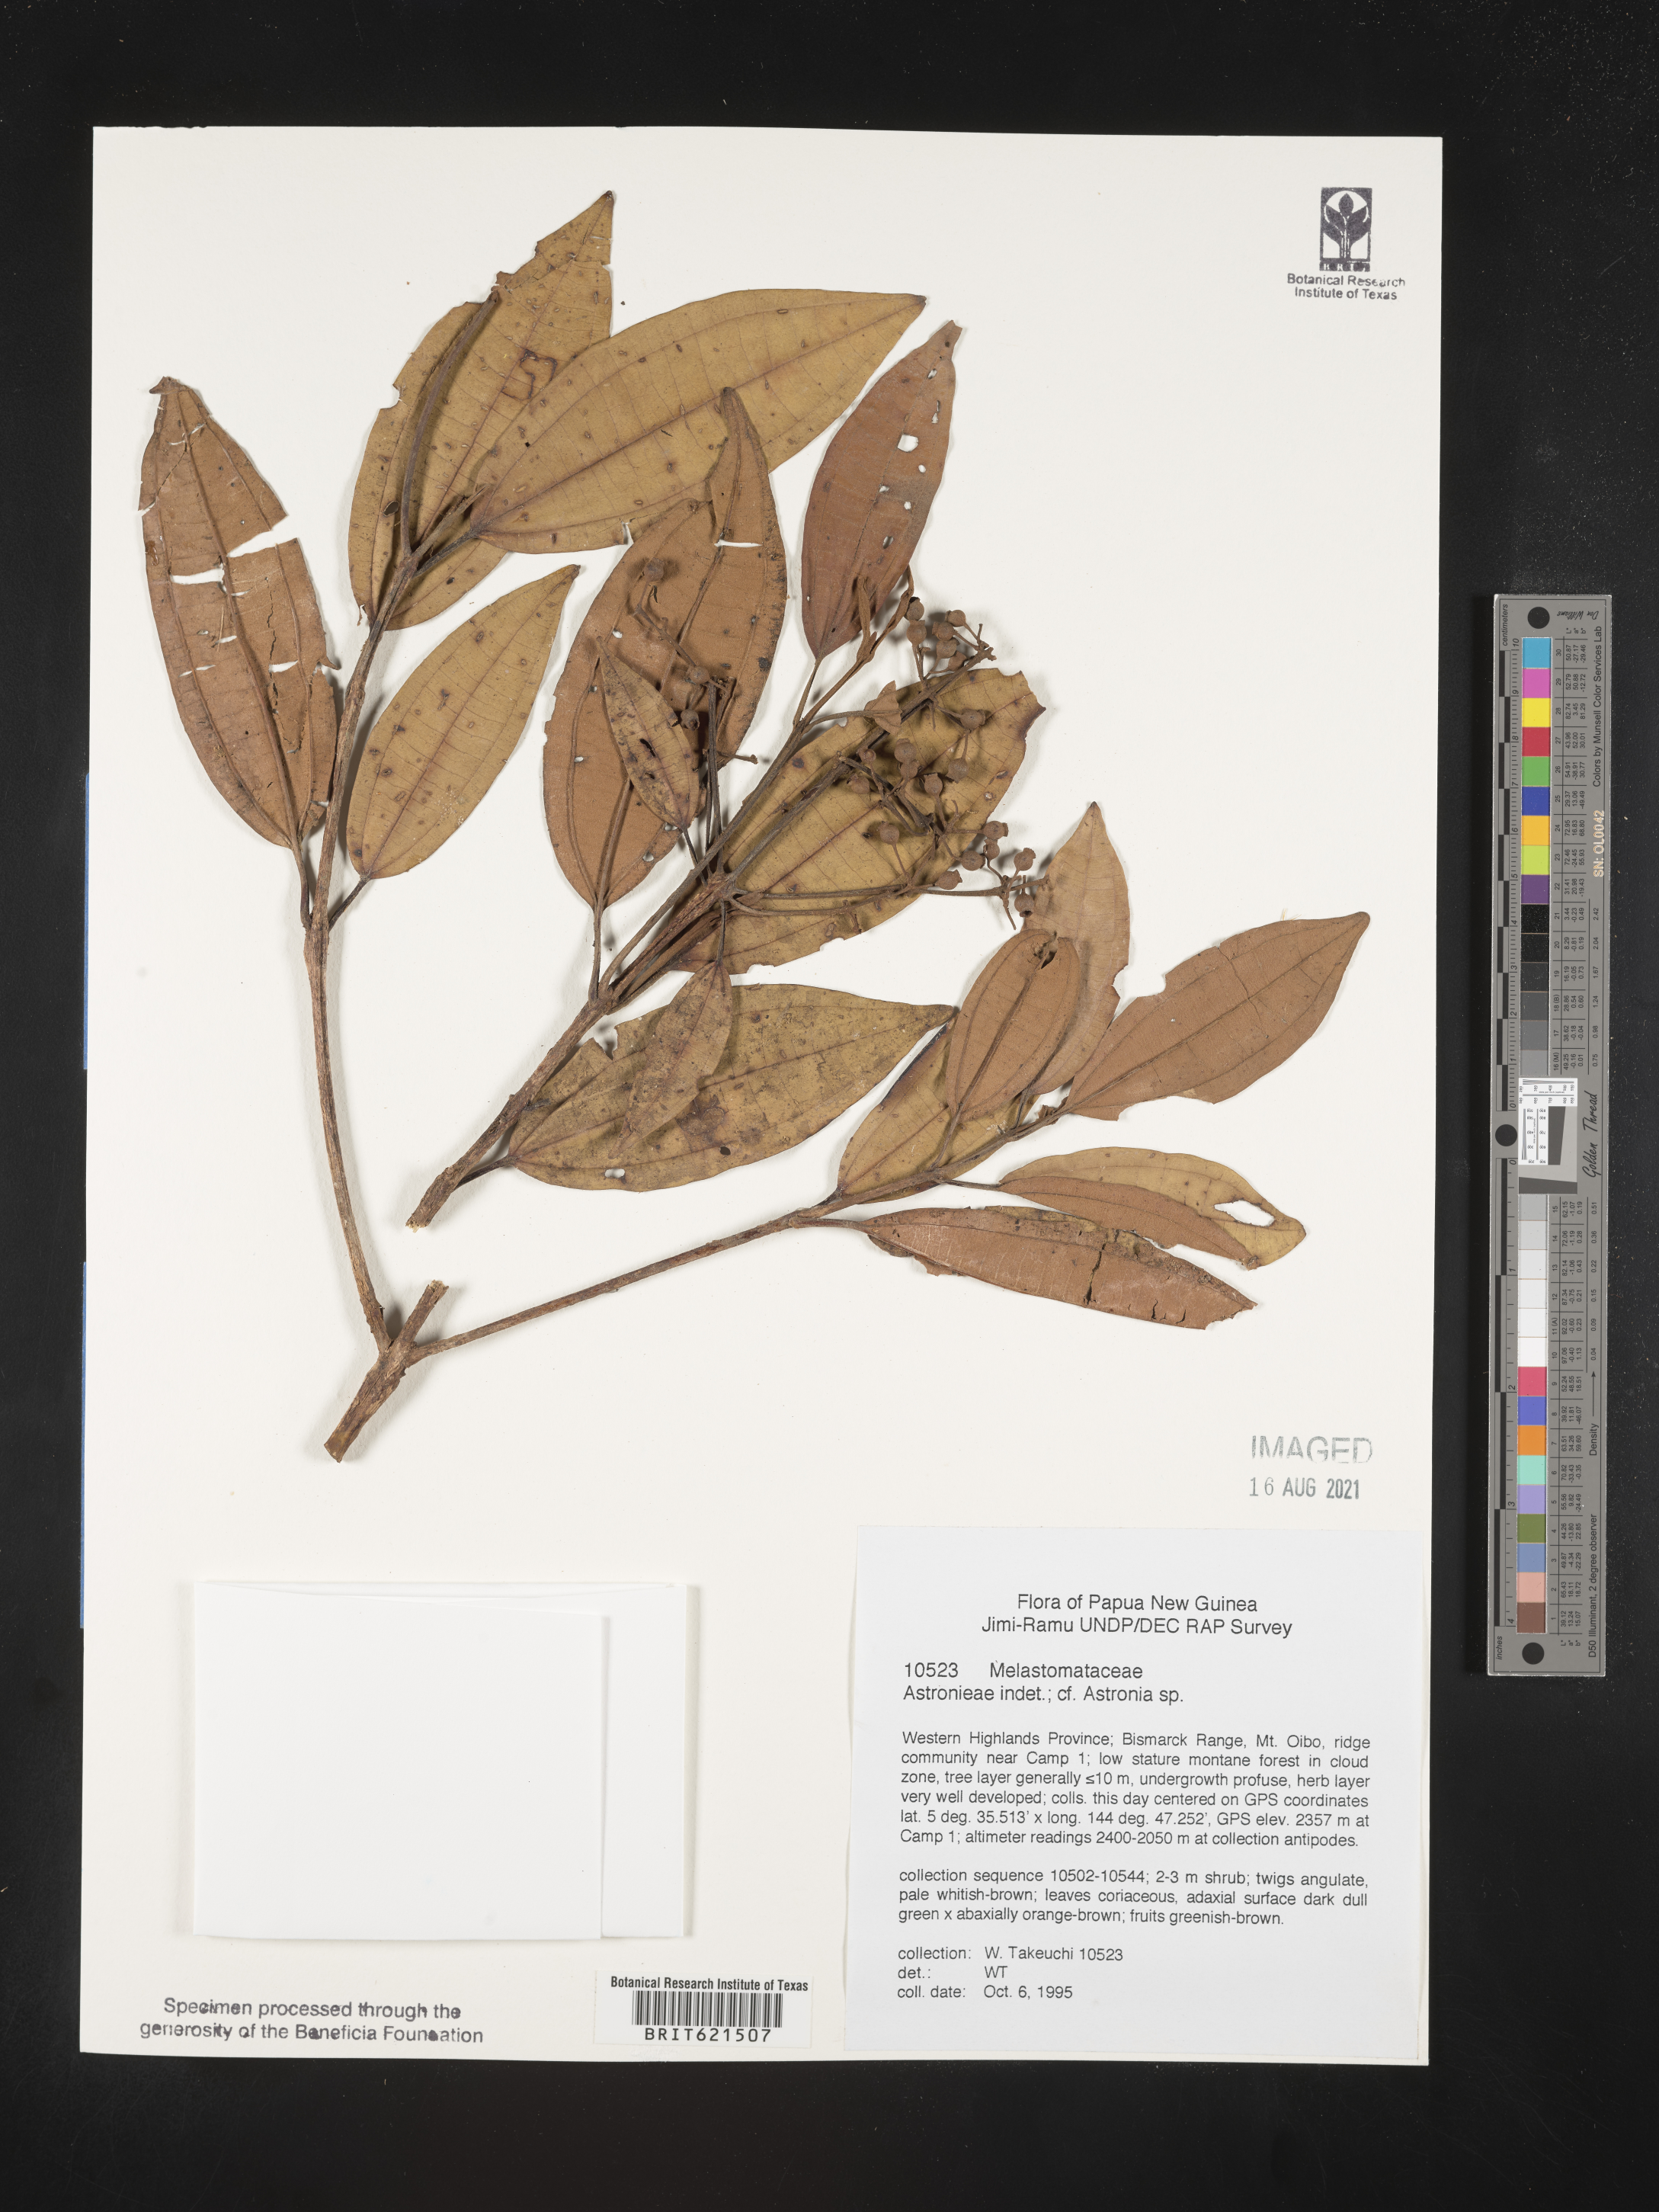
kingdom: Plantae
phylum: Tracheophyta
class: Magnoliopsida
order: Myrtales
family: Melastomataceae
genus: Astronia
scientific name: Astronia
